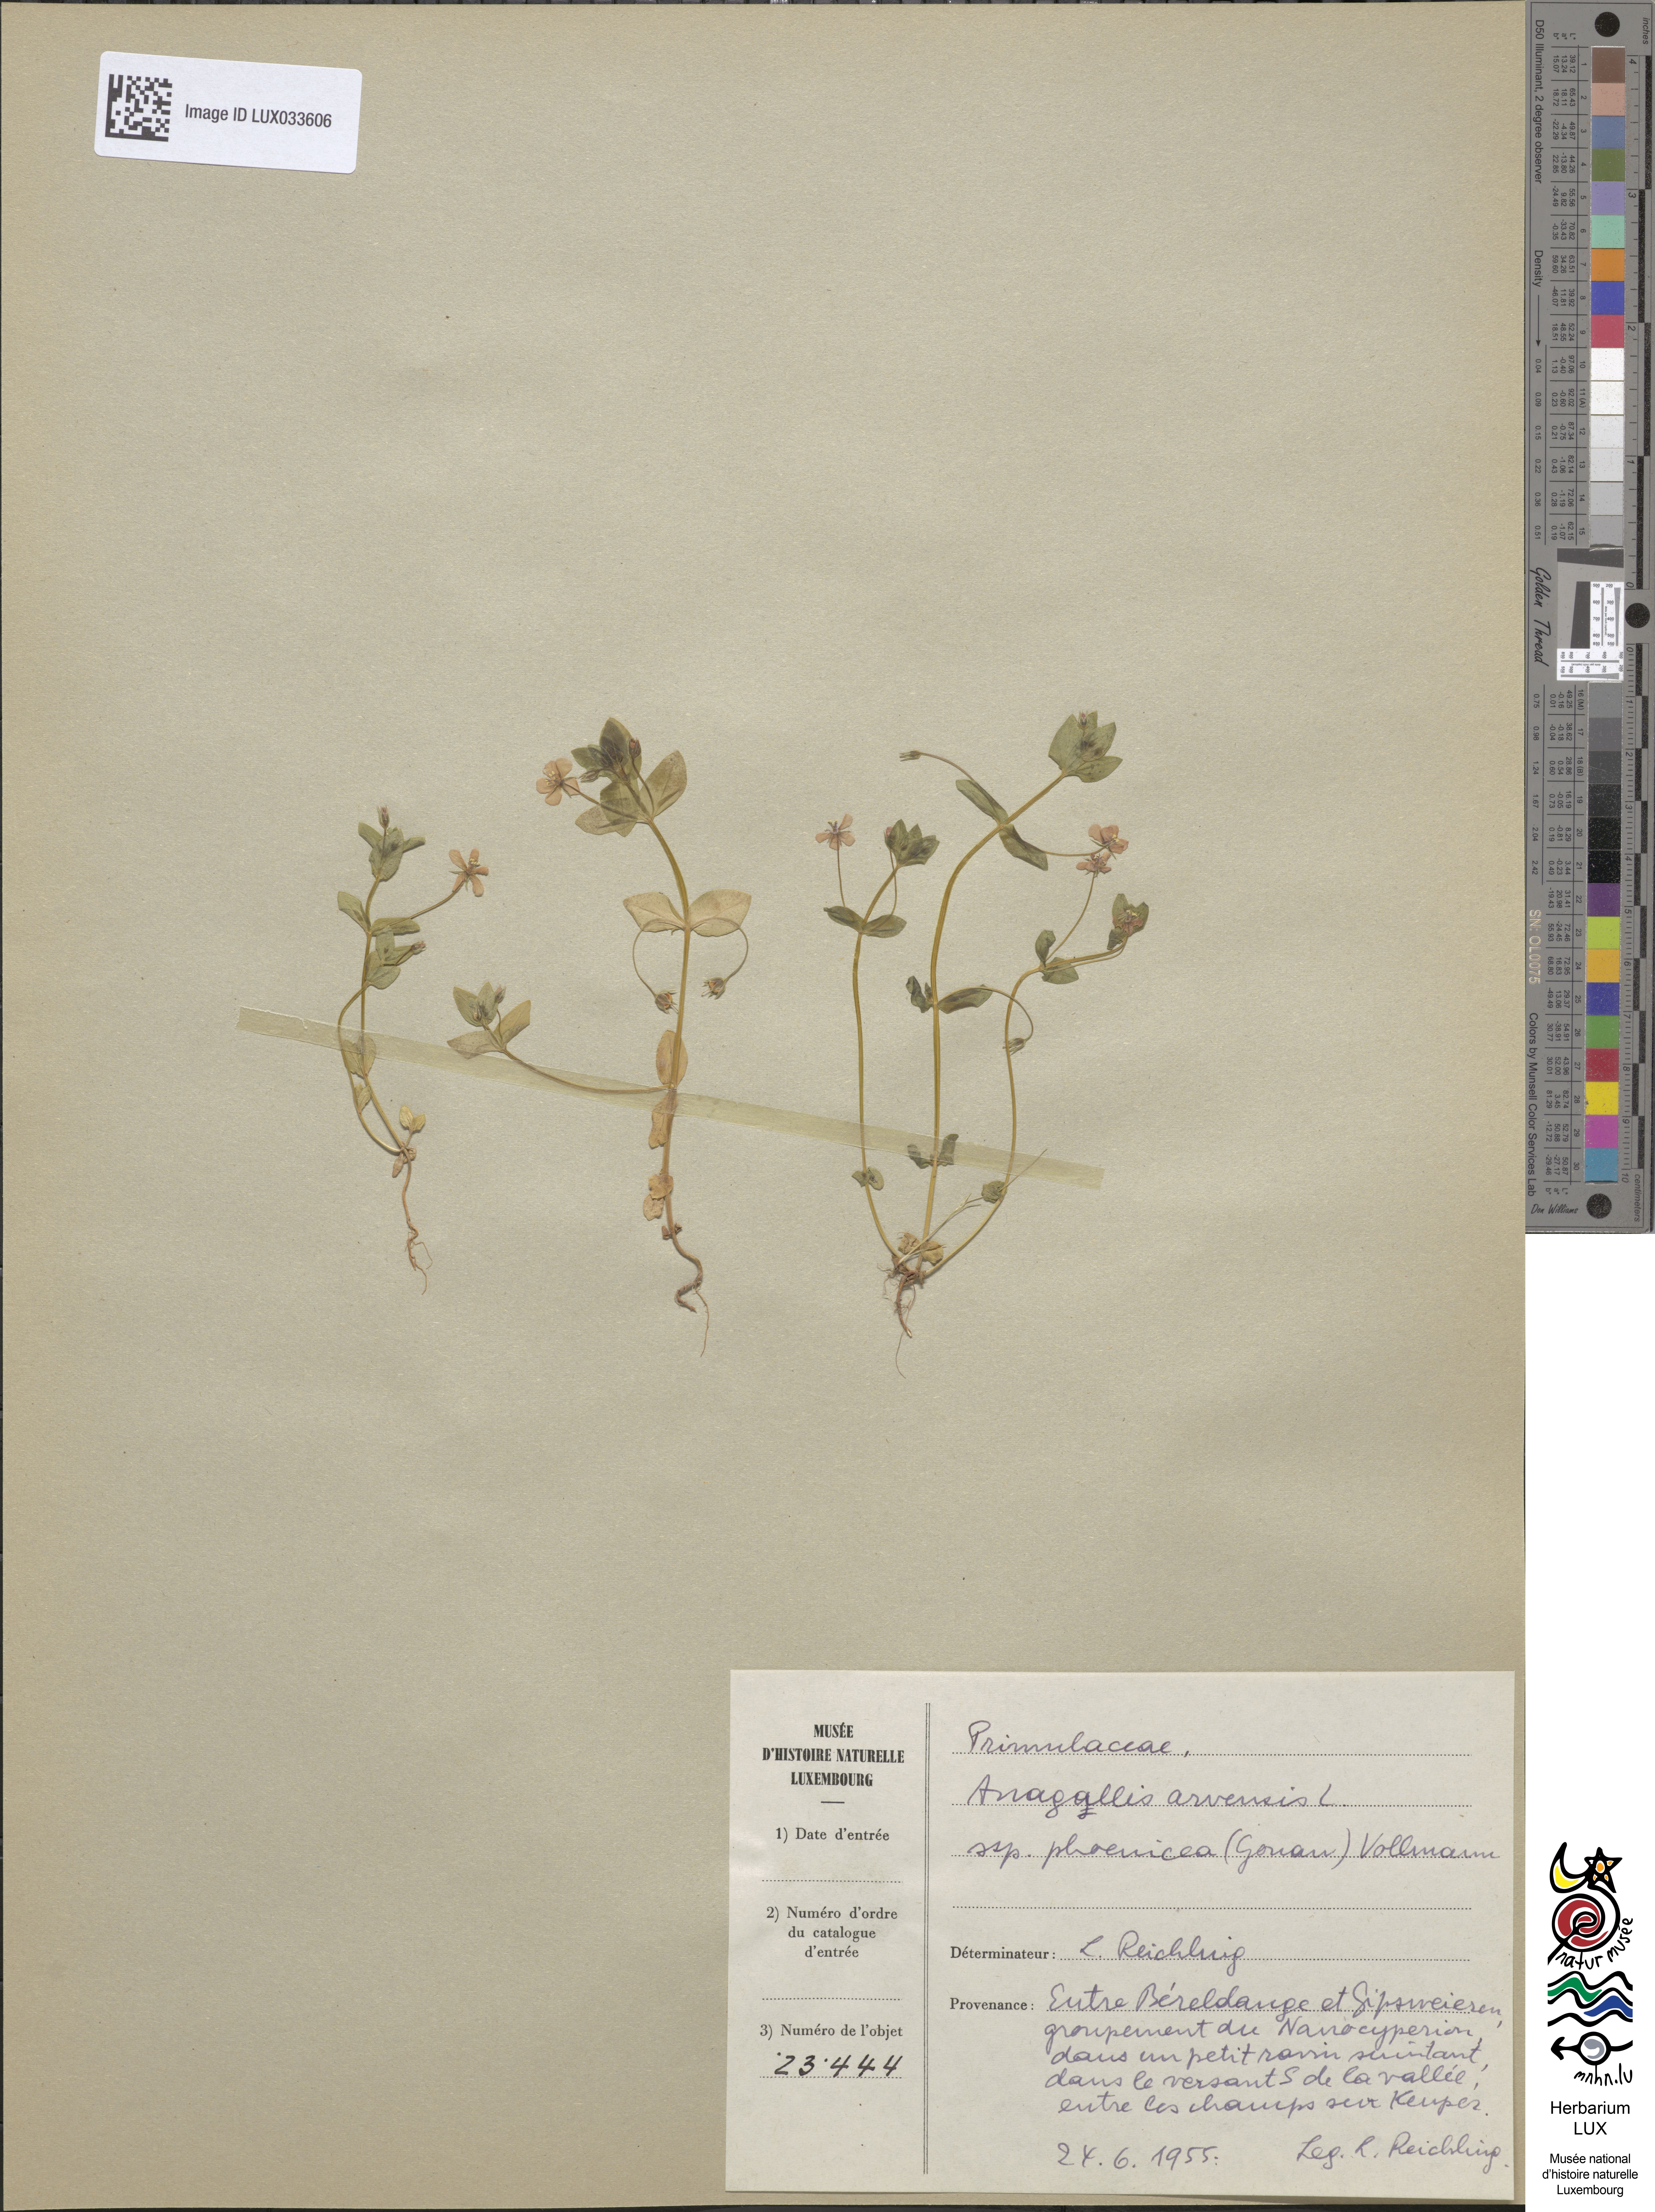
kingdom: Plantae
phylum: Tracheophyta
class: Magnoliopsida
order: Ericales
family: Primulaceae
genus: Lysimachia
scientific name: Lysimachia arvensis
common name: Scarlet pimpernel
